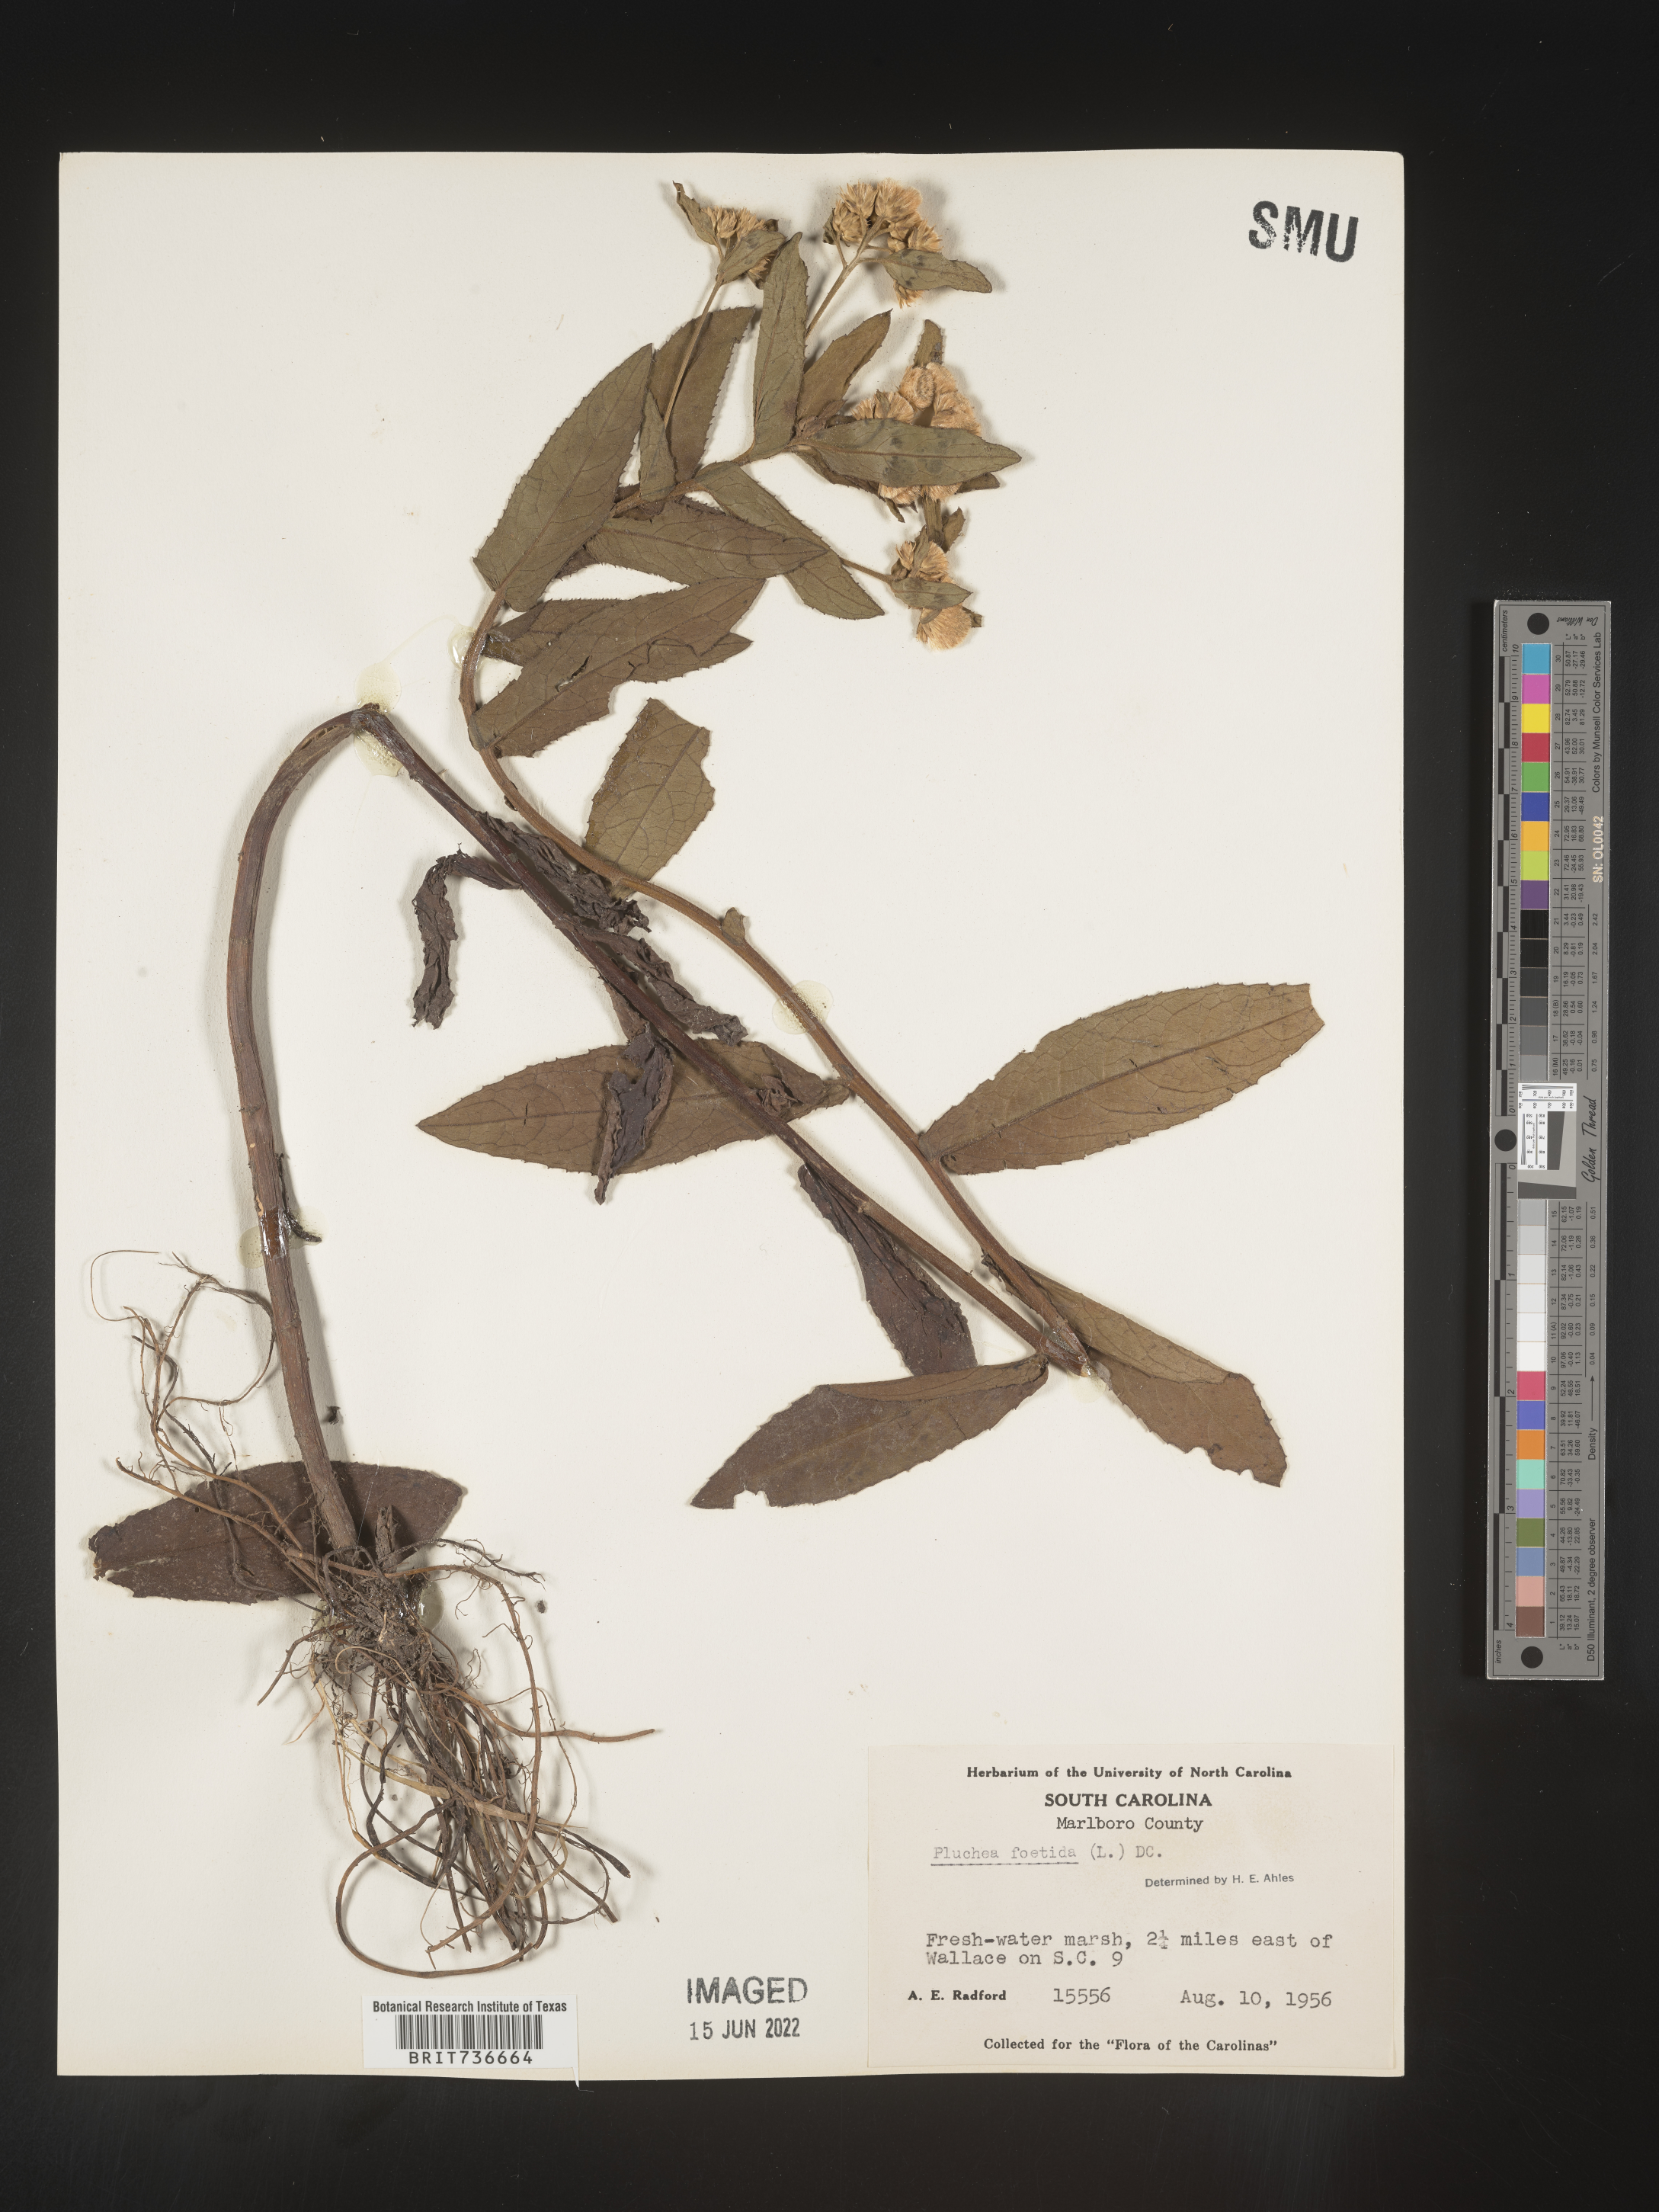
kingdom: Plantae
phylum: Tracheophyta
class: Magnoliopsida
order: Asterales
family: Asteraceae
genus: Pluchea
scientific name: Pluchea foetida
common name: Stinking camphorweed
